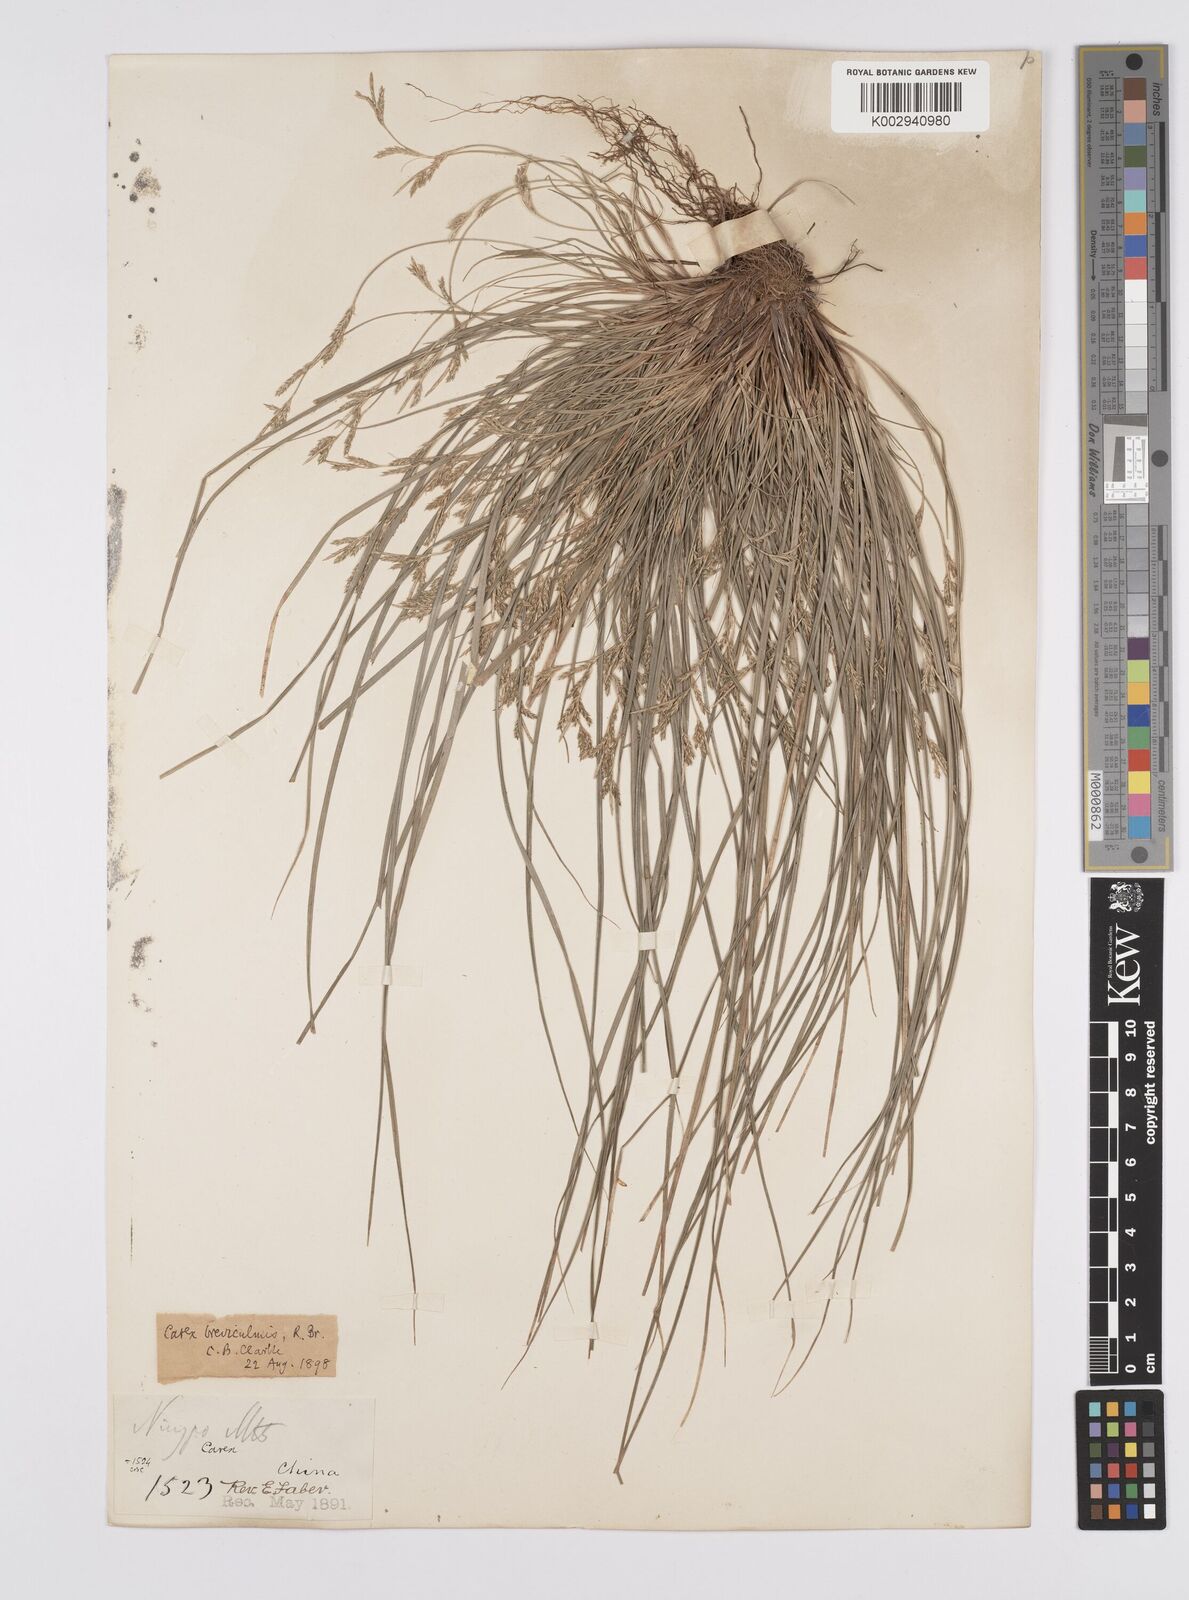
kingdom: Plantae
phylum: Tracheophyta
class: Liliopsida
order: Poales
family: Cyperaceae
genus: Carex
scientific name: Carex breviculmis
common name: Asian shortstem sedge
